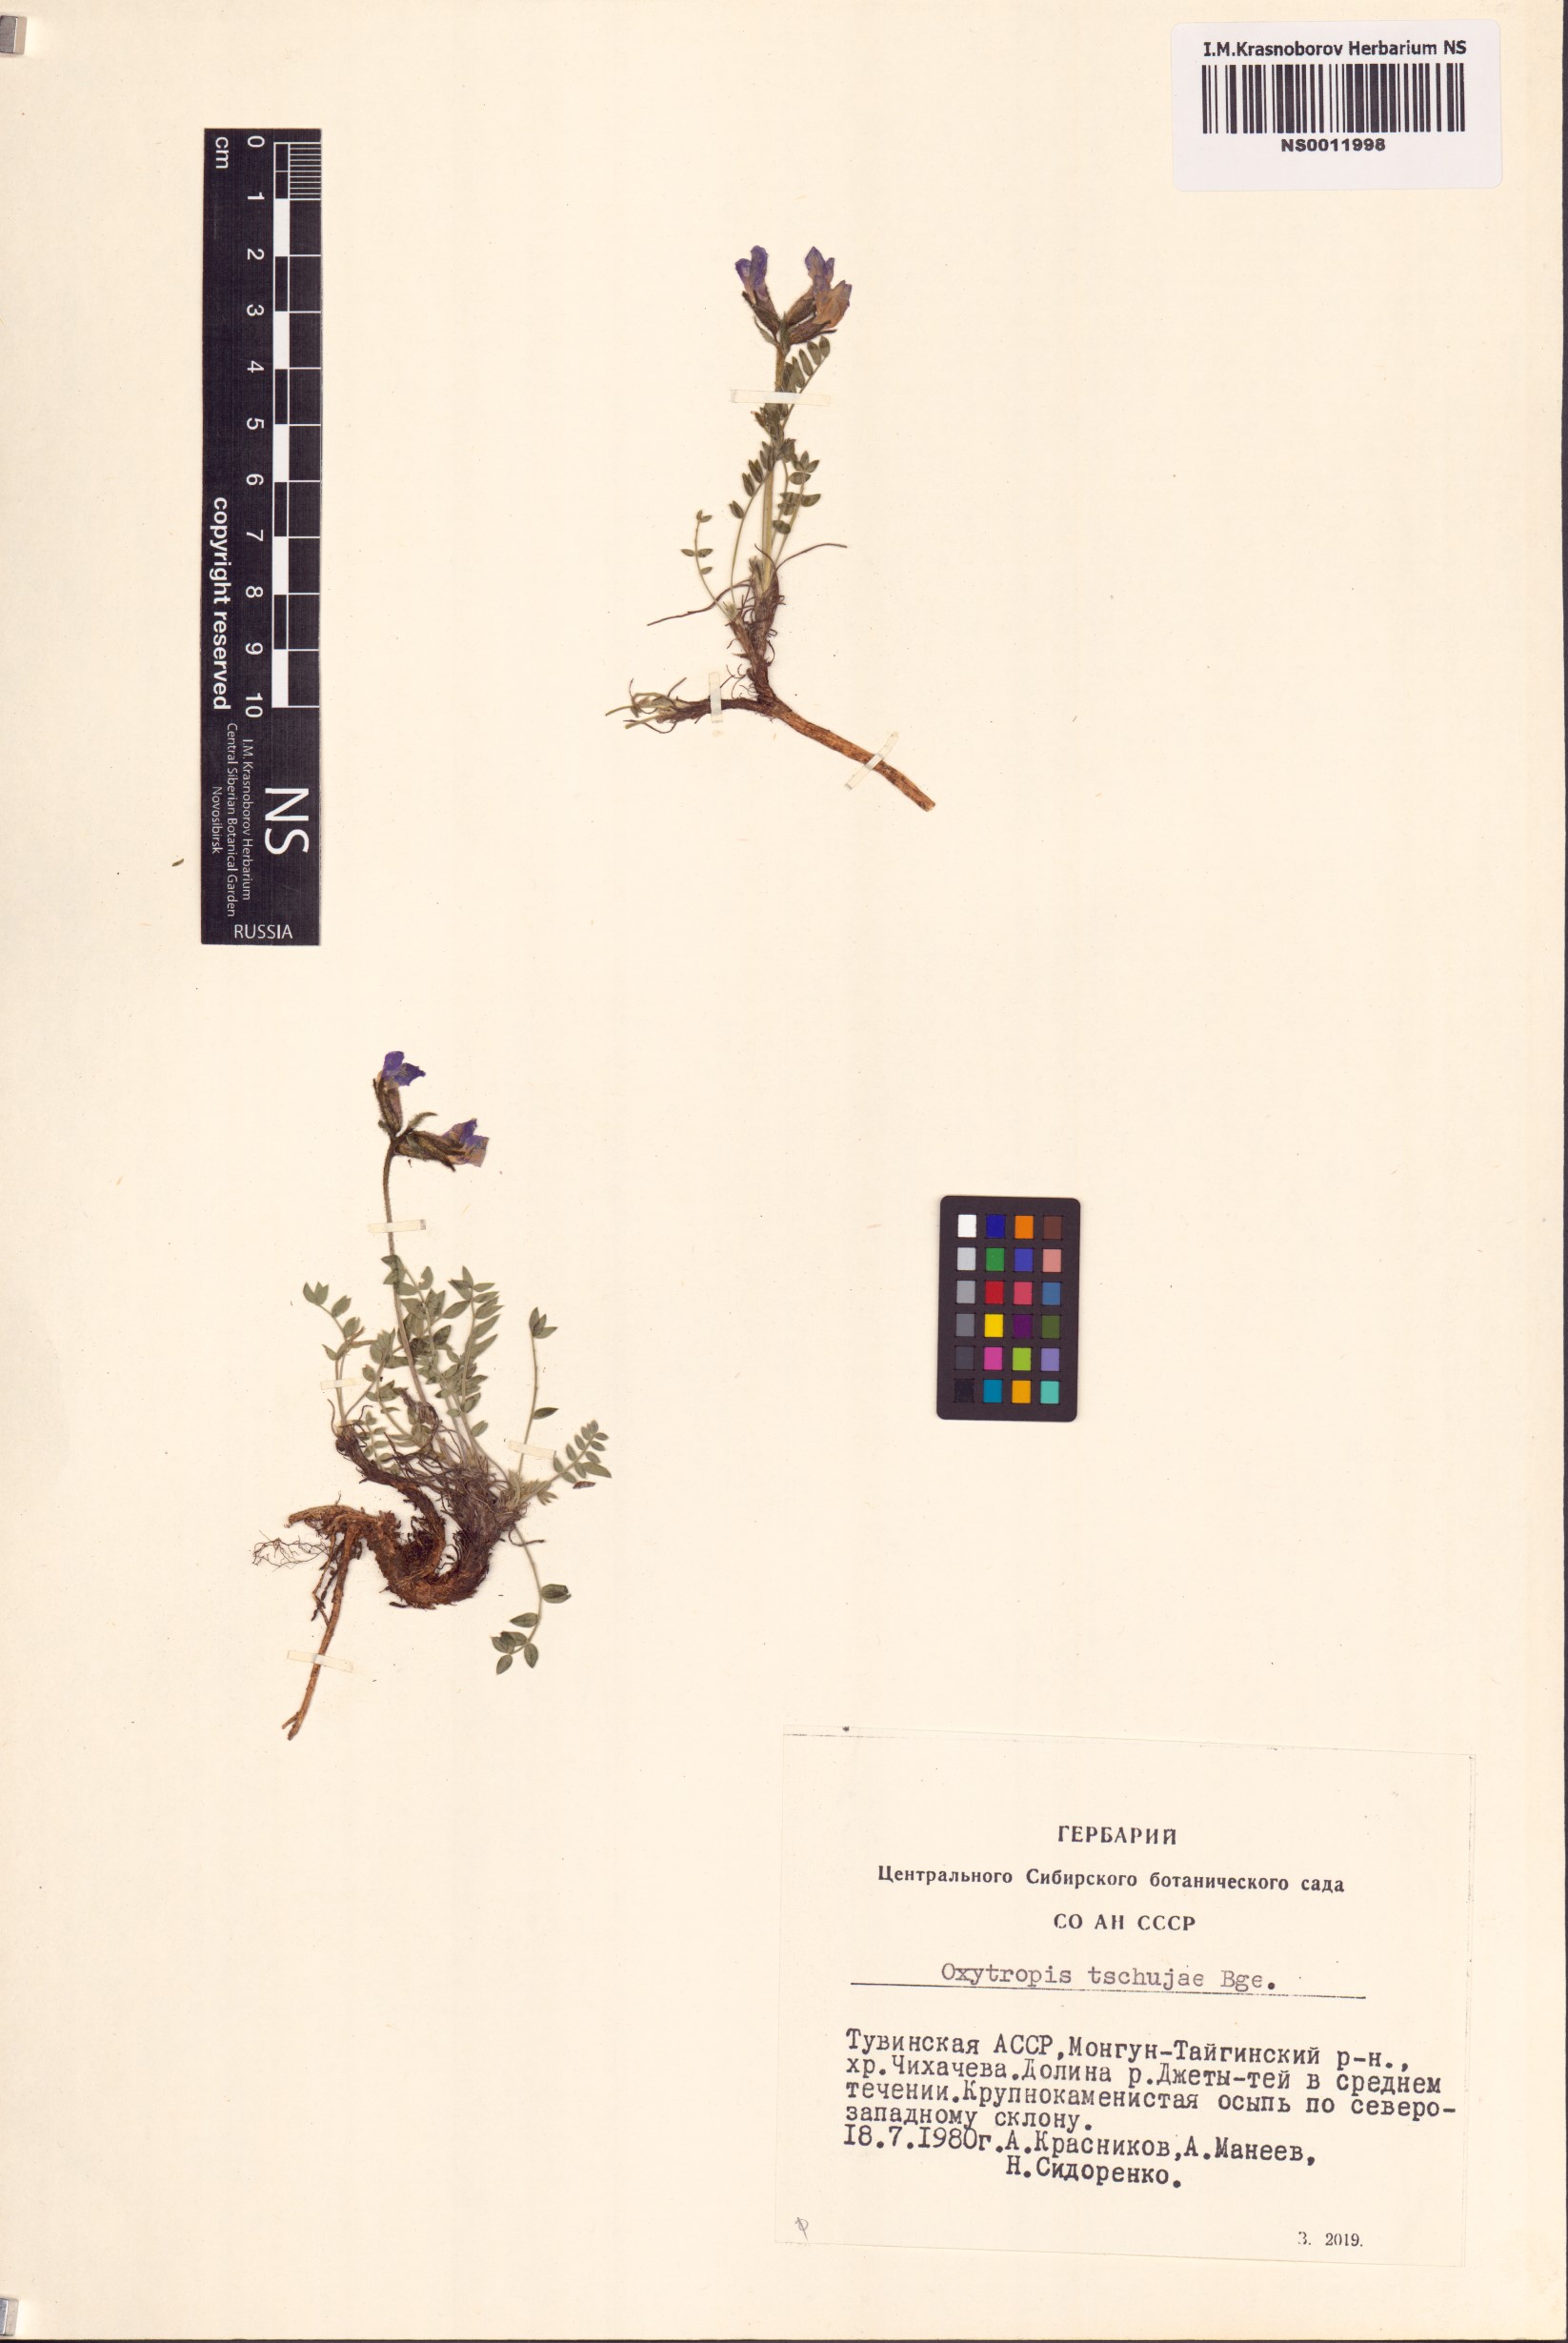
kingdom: Plantae
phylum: Tracheophyta
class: Magnoliopsida
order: Fabales
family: Fabaceae
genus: Oxytropis
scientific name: Oxytropis tschujae
